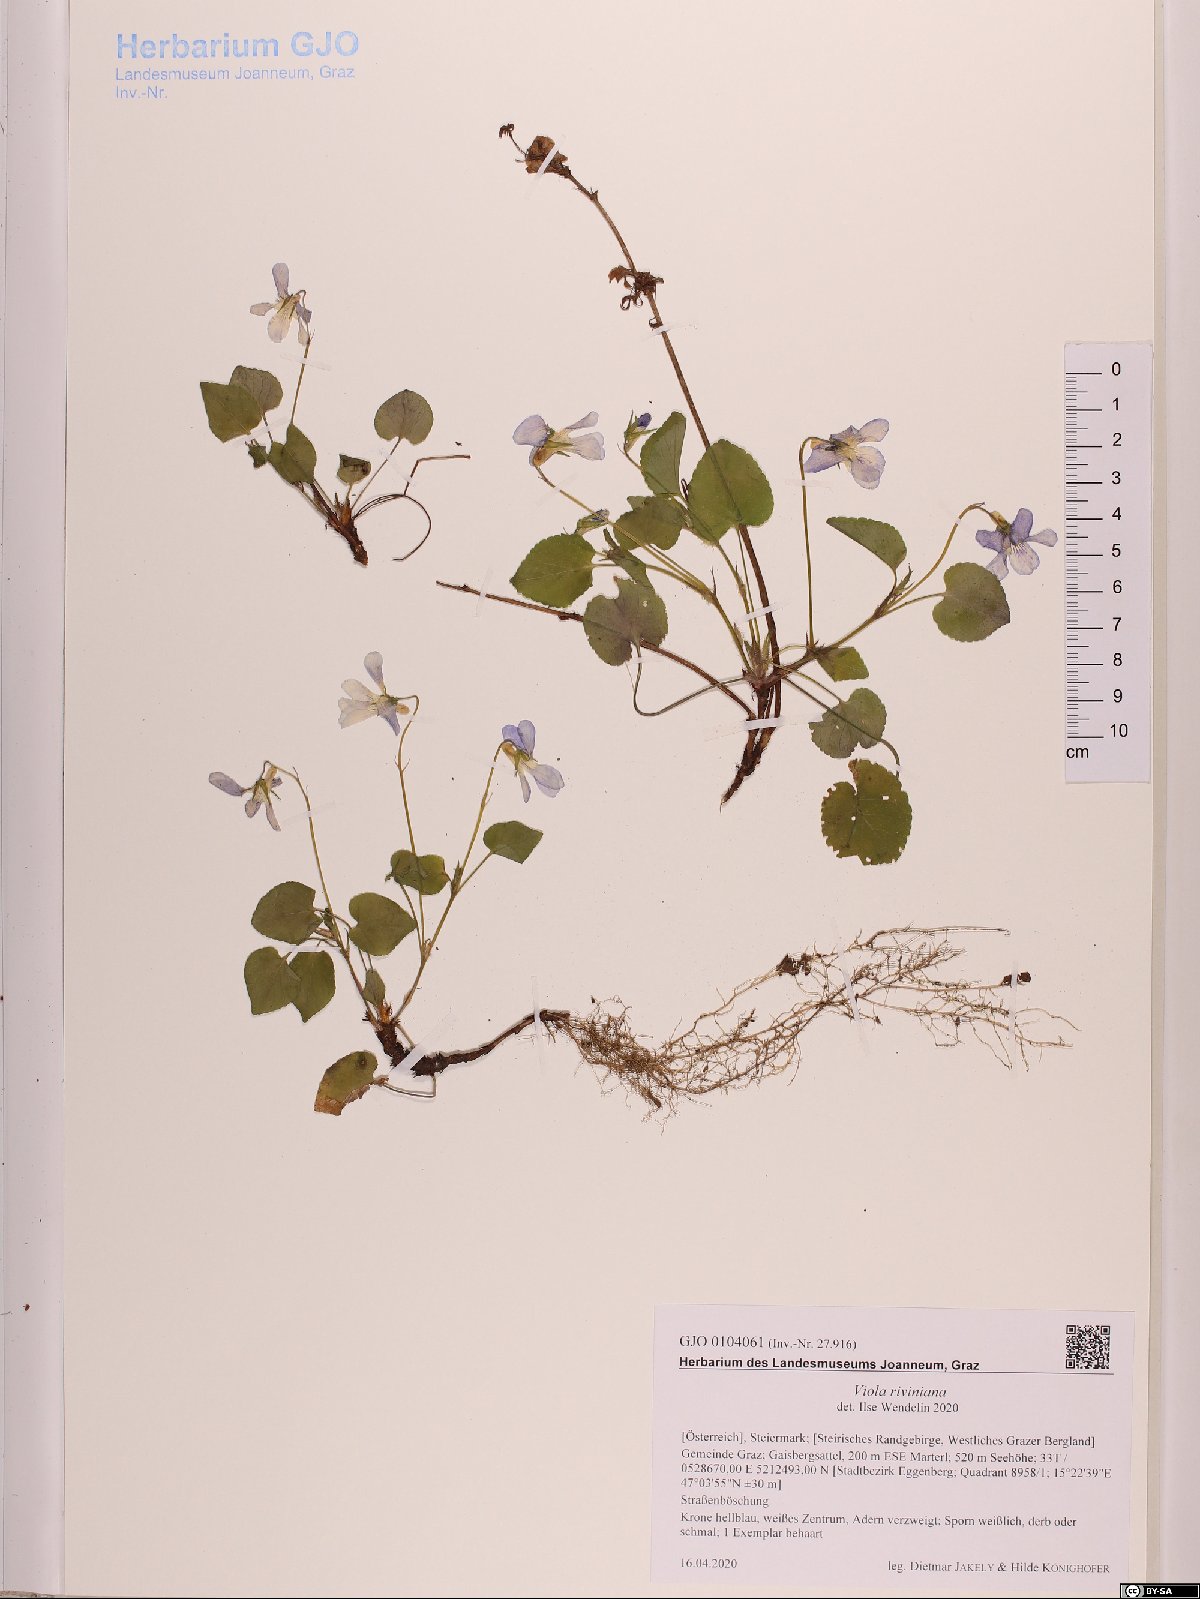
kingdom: Plantae
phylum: Tracheophyta
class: Magnoliopsida
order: Malpighiales
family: Violaceae
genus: Viola
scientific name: Viola riviniana
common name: Common dog-violet
